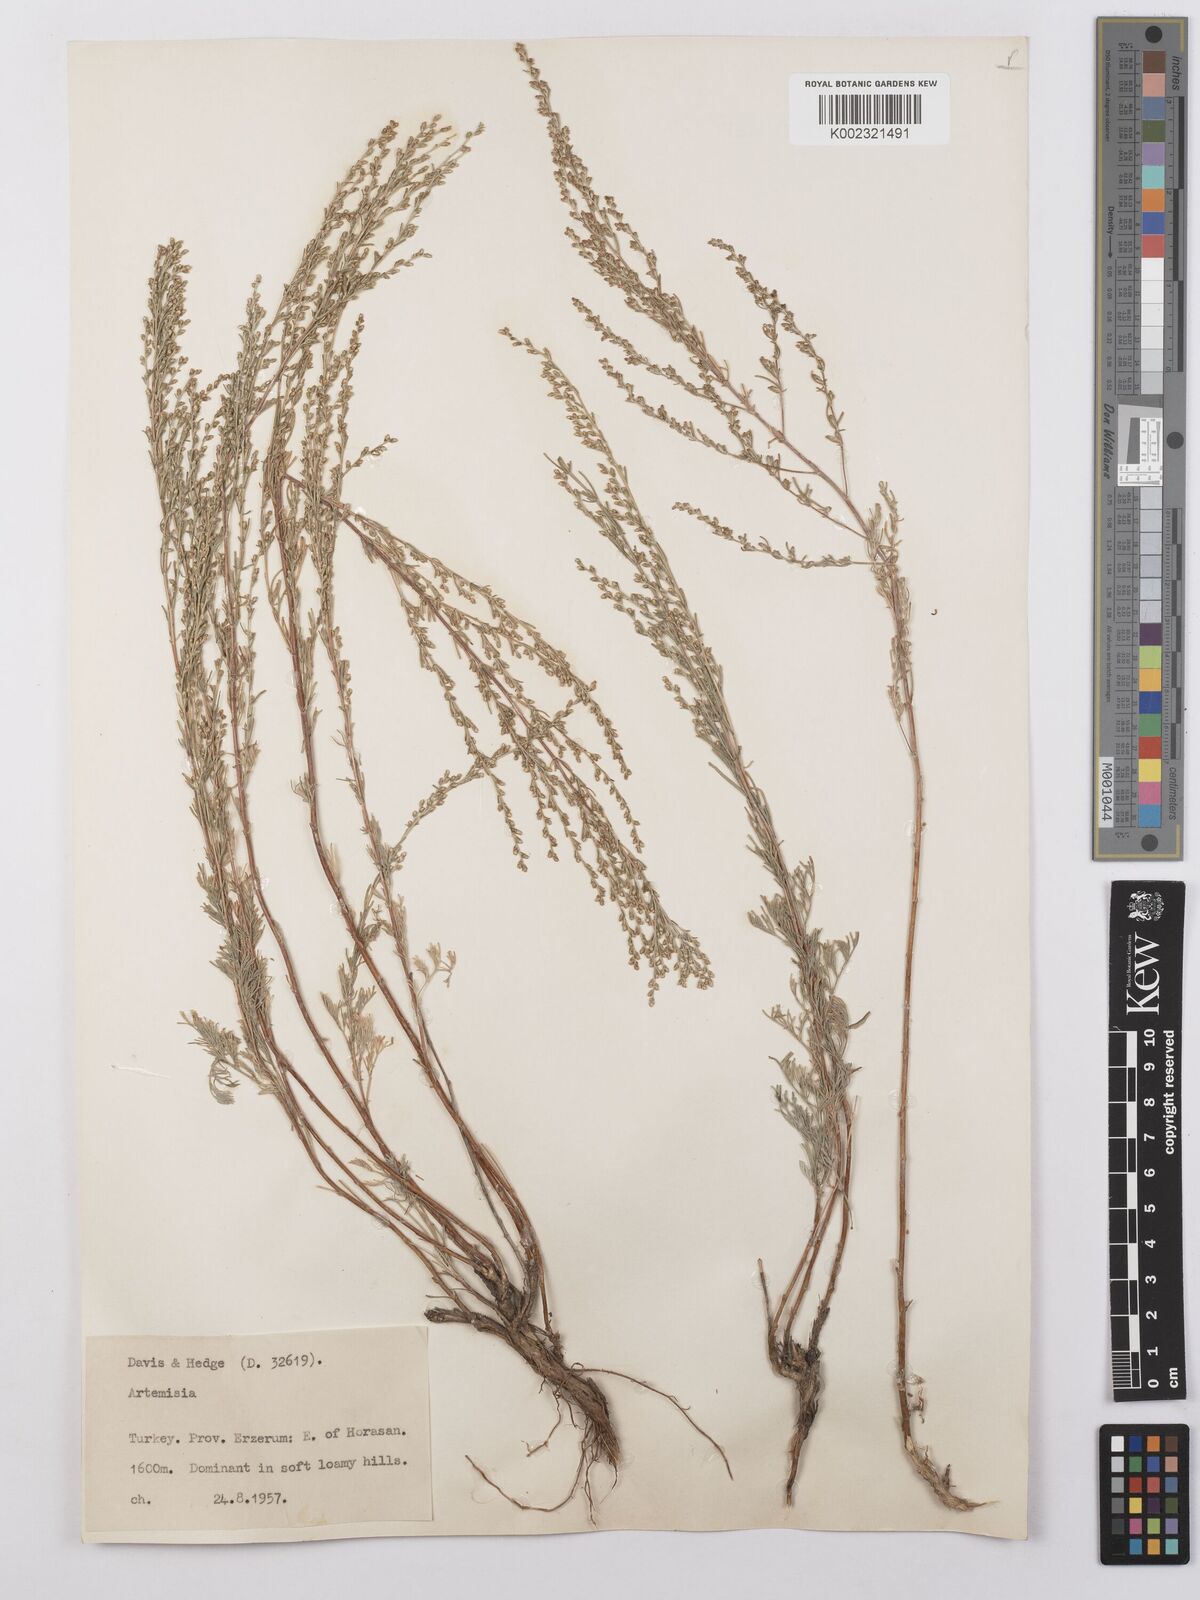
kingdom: Plantae
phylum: Tracheophyta
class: Magnoliopsida
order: Asterales
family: Asteraceae
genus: Artemisia
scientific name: Artemisia taurica
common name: Tauric wormwood
